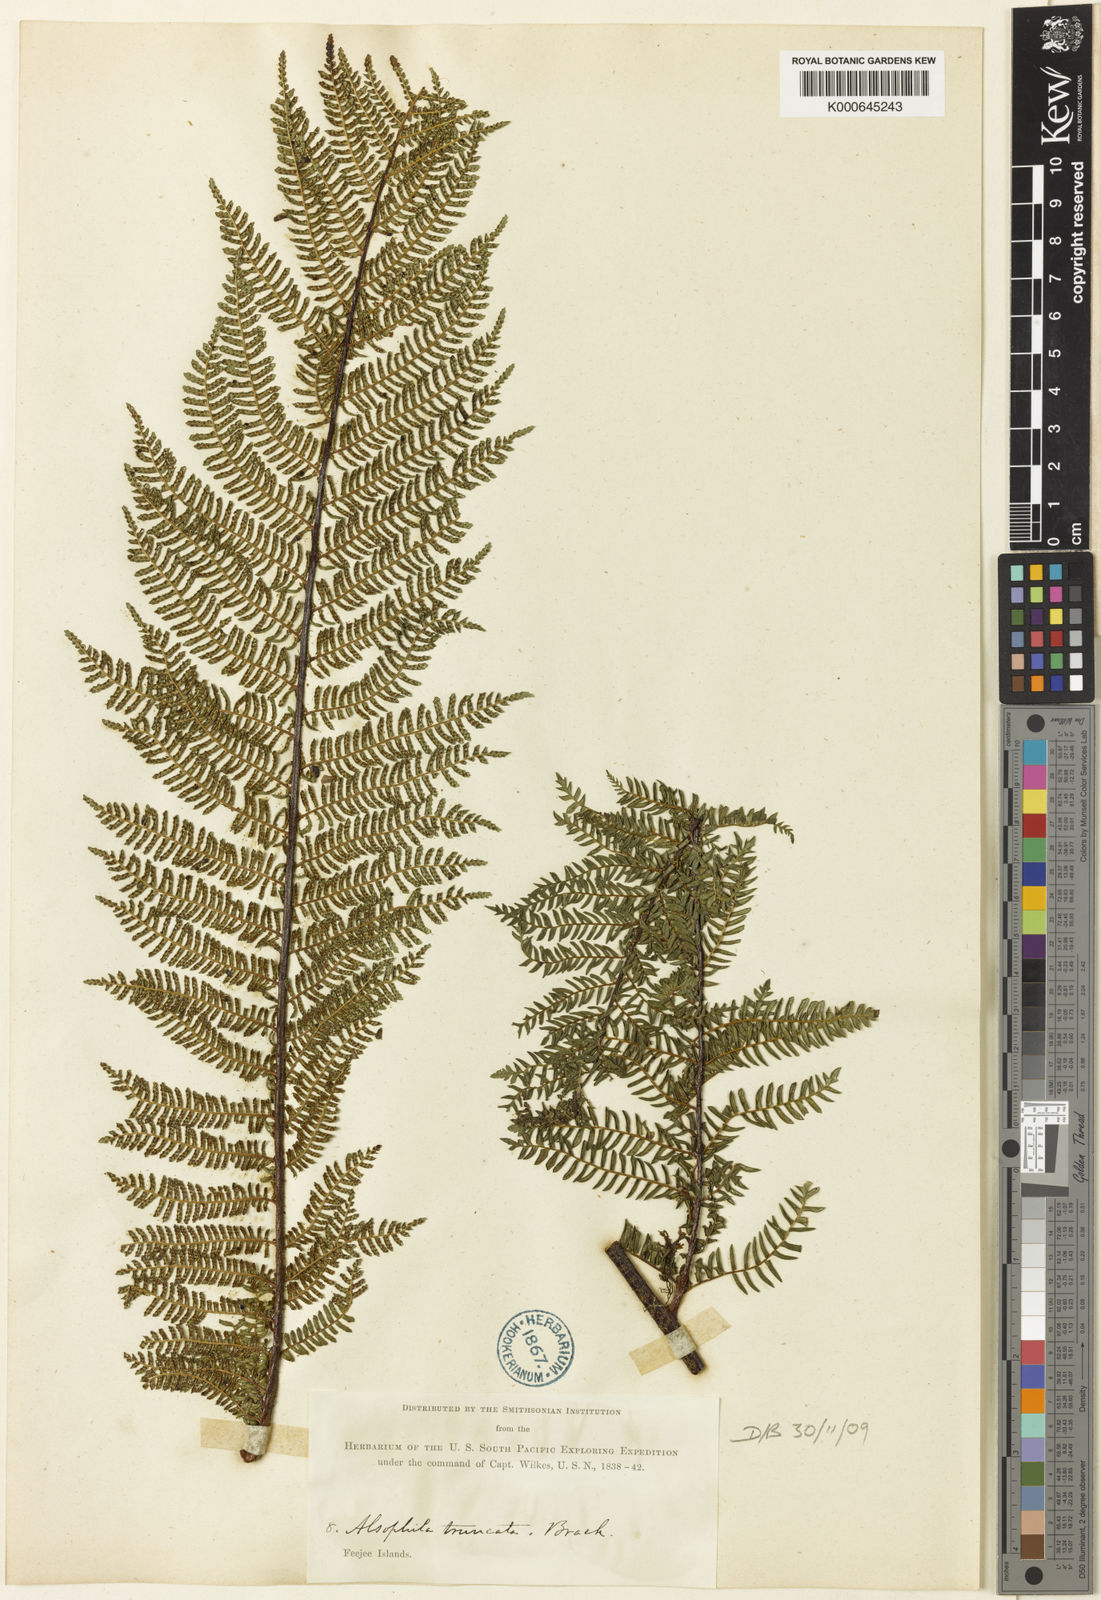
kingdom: Plantae
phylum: Tracheophyta
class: Polypodiopsida
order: Cyatheales
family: Cyatheaceae
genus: Sphaeropteris
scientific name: Sphaeropteris truncata
